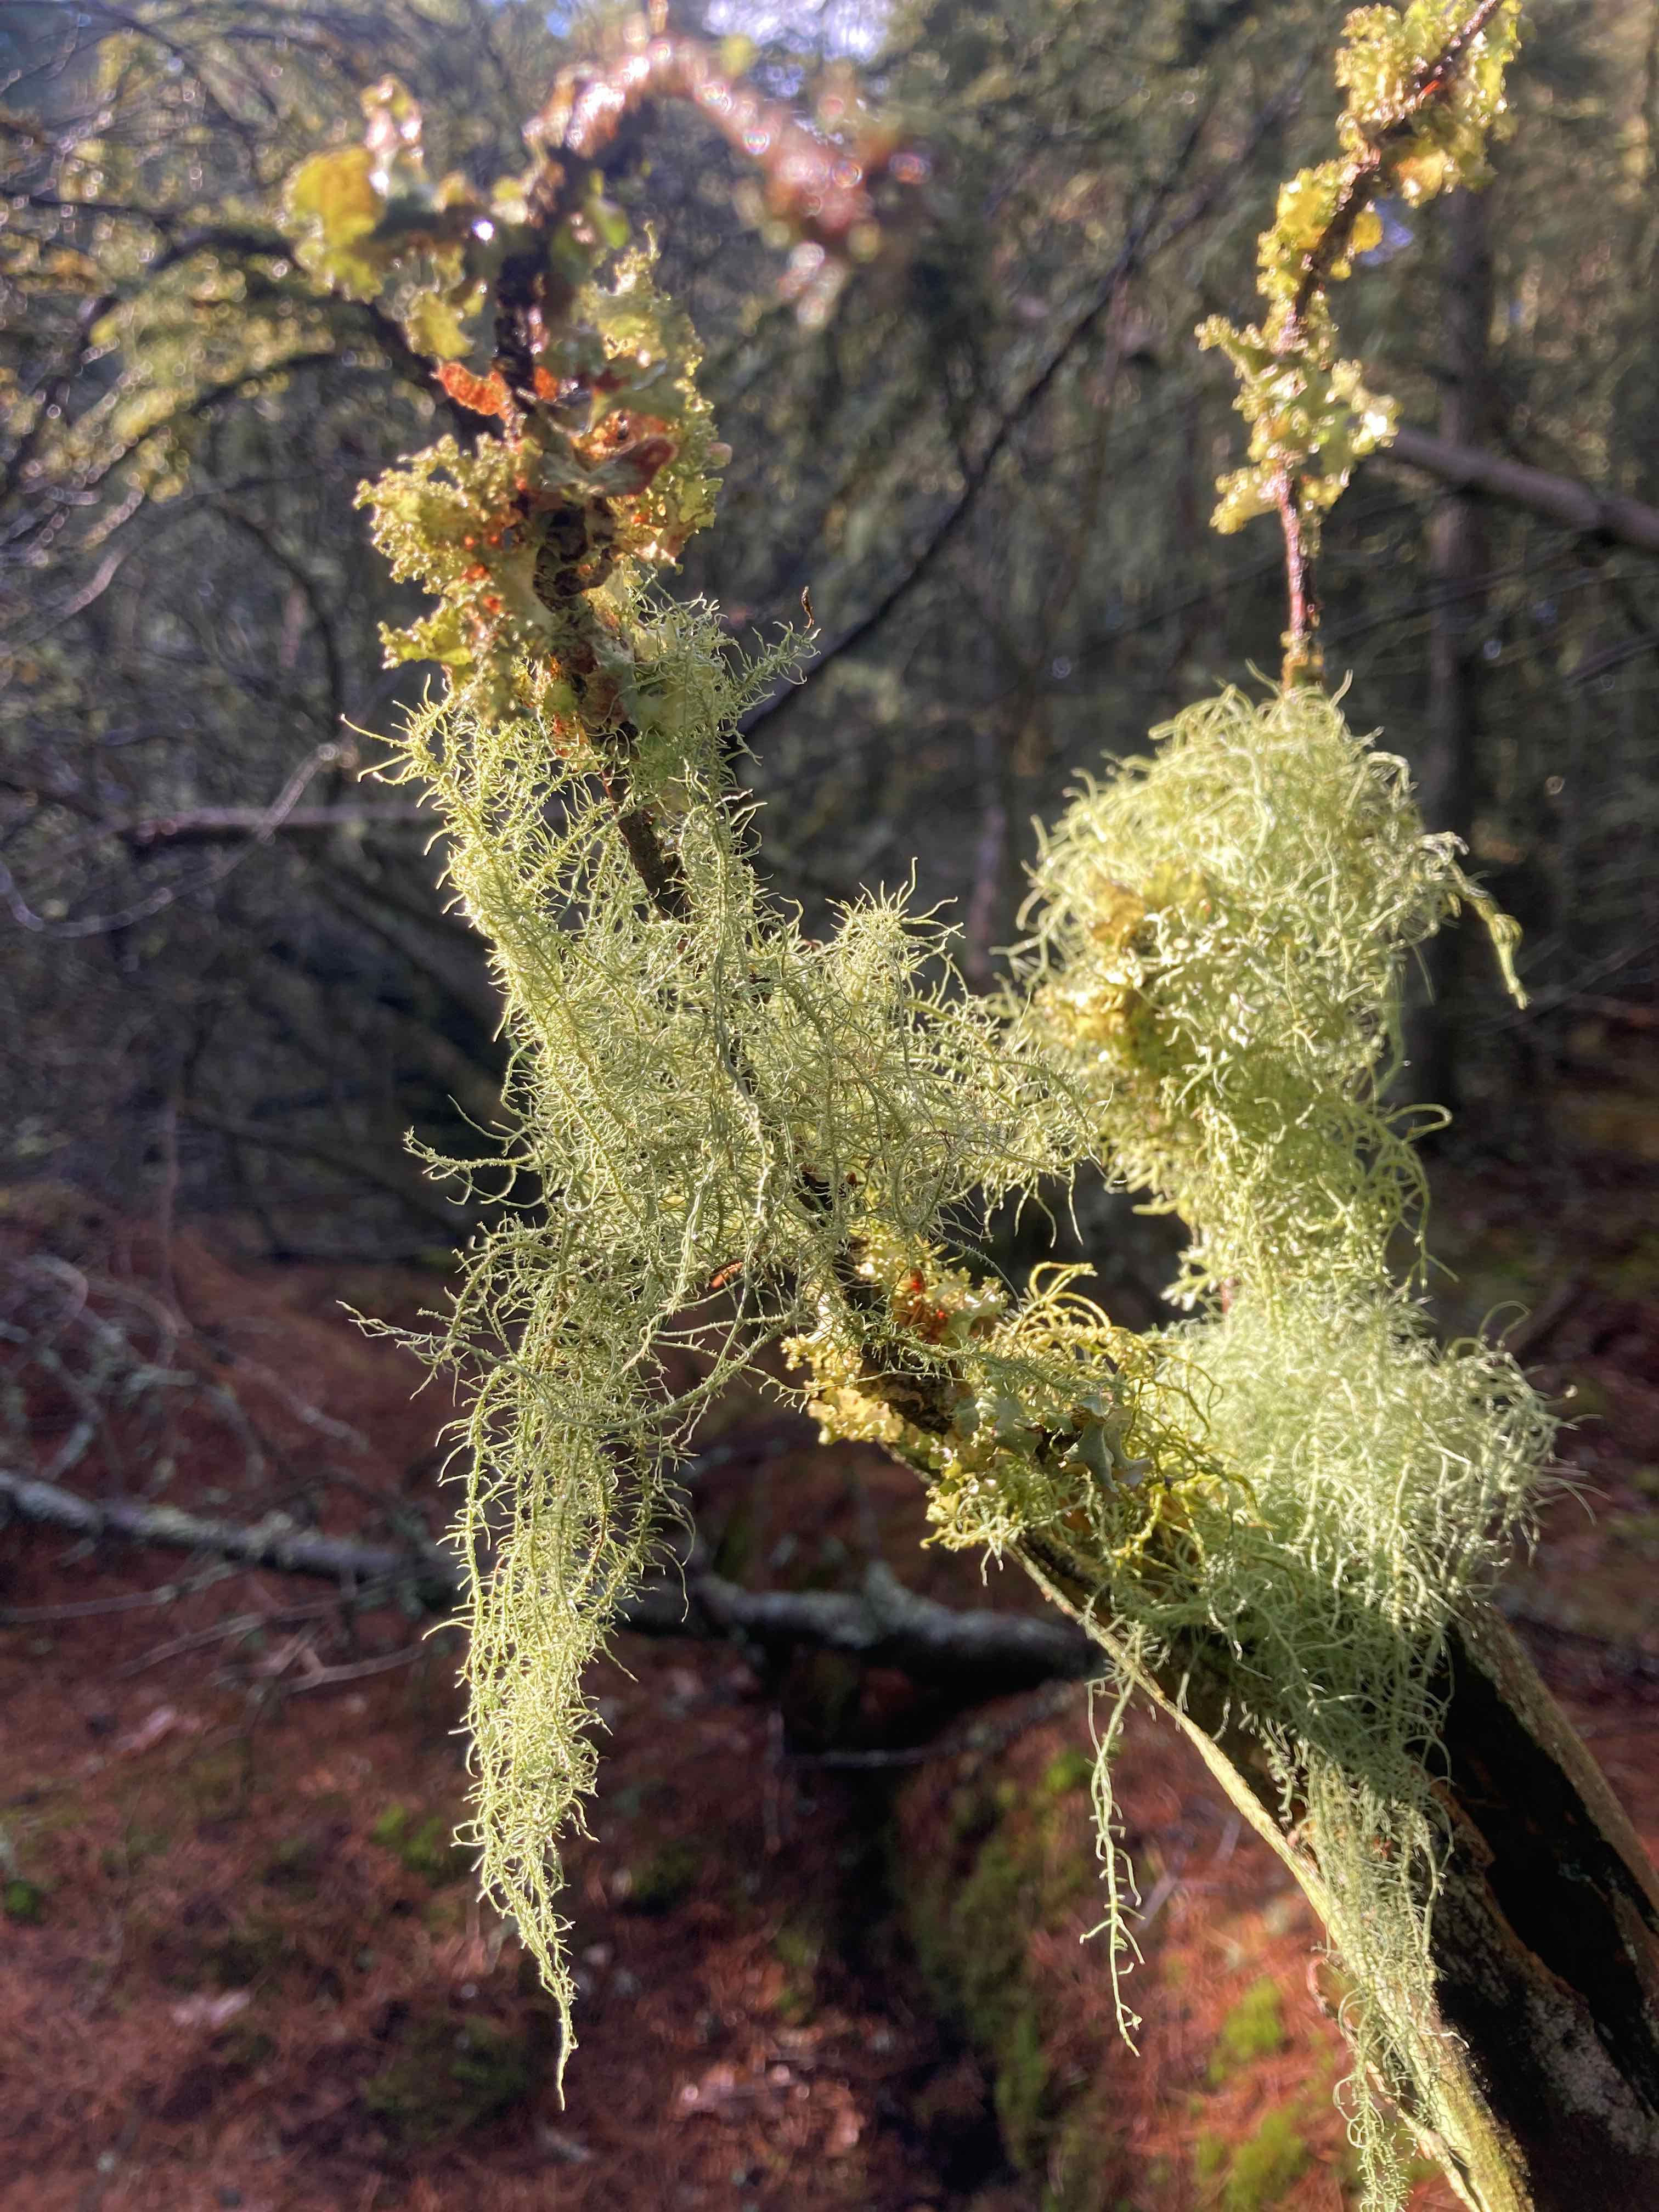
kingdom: Fungi
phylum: Ascomycota
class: Lecanoromycetes
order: Lecanorales
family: Parmeliaceae
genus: Usnea
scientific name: Usnea dasypoga
